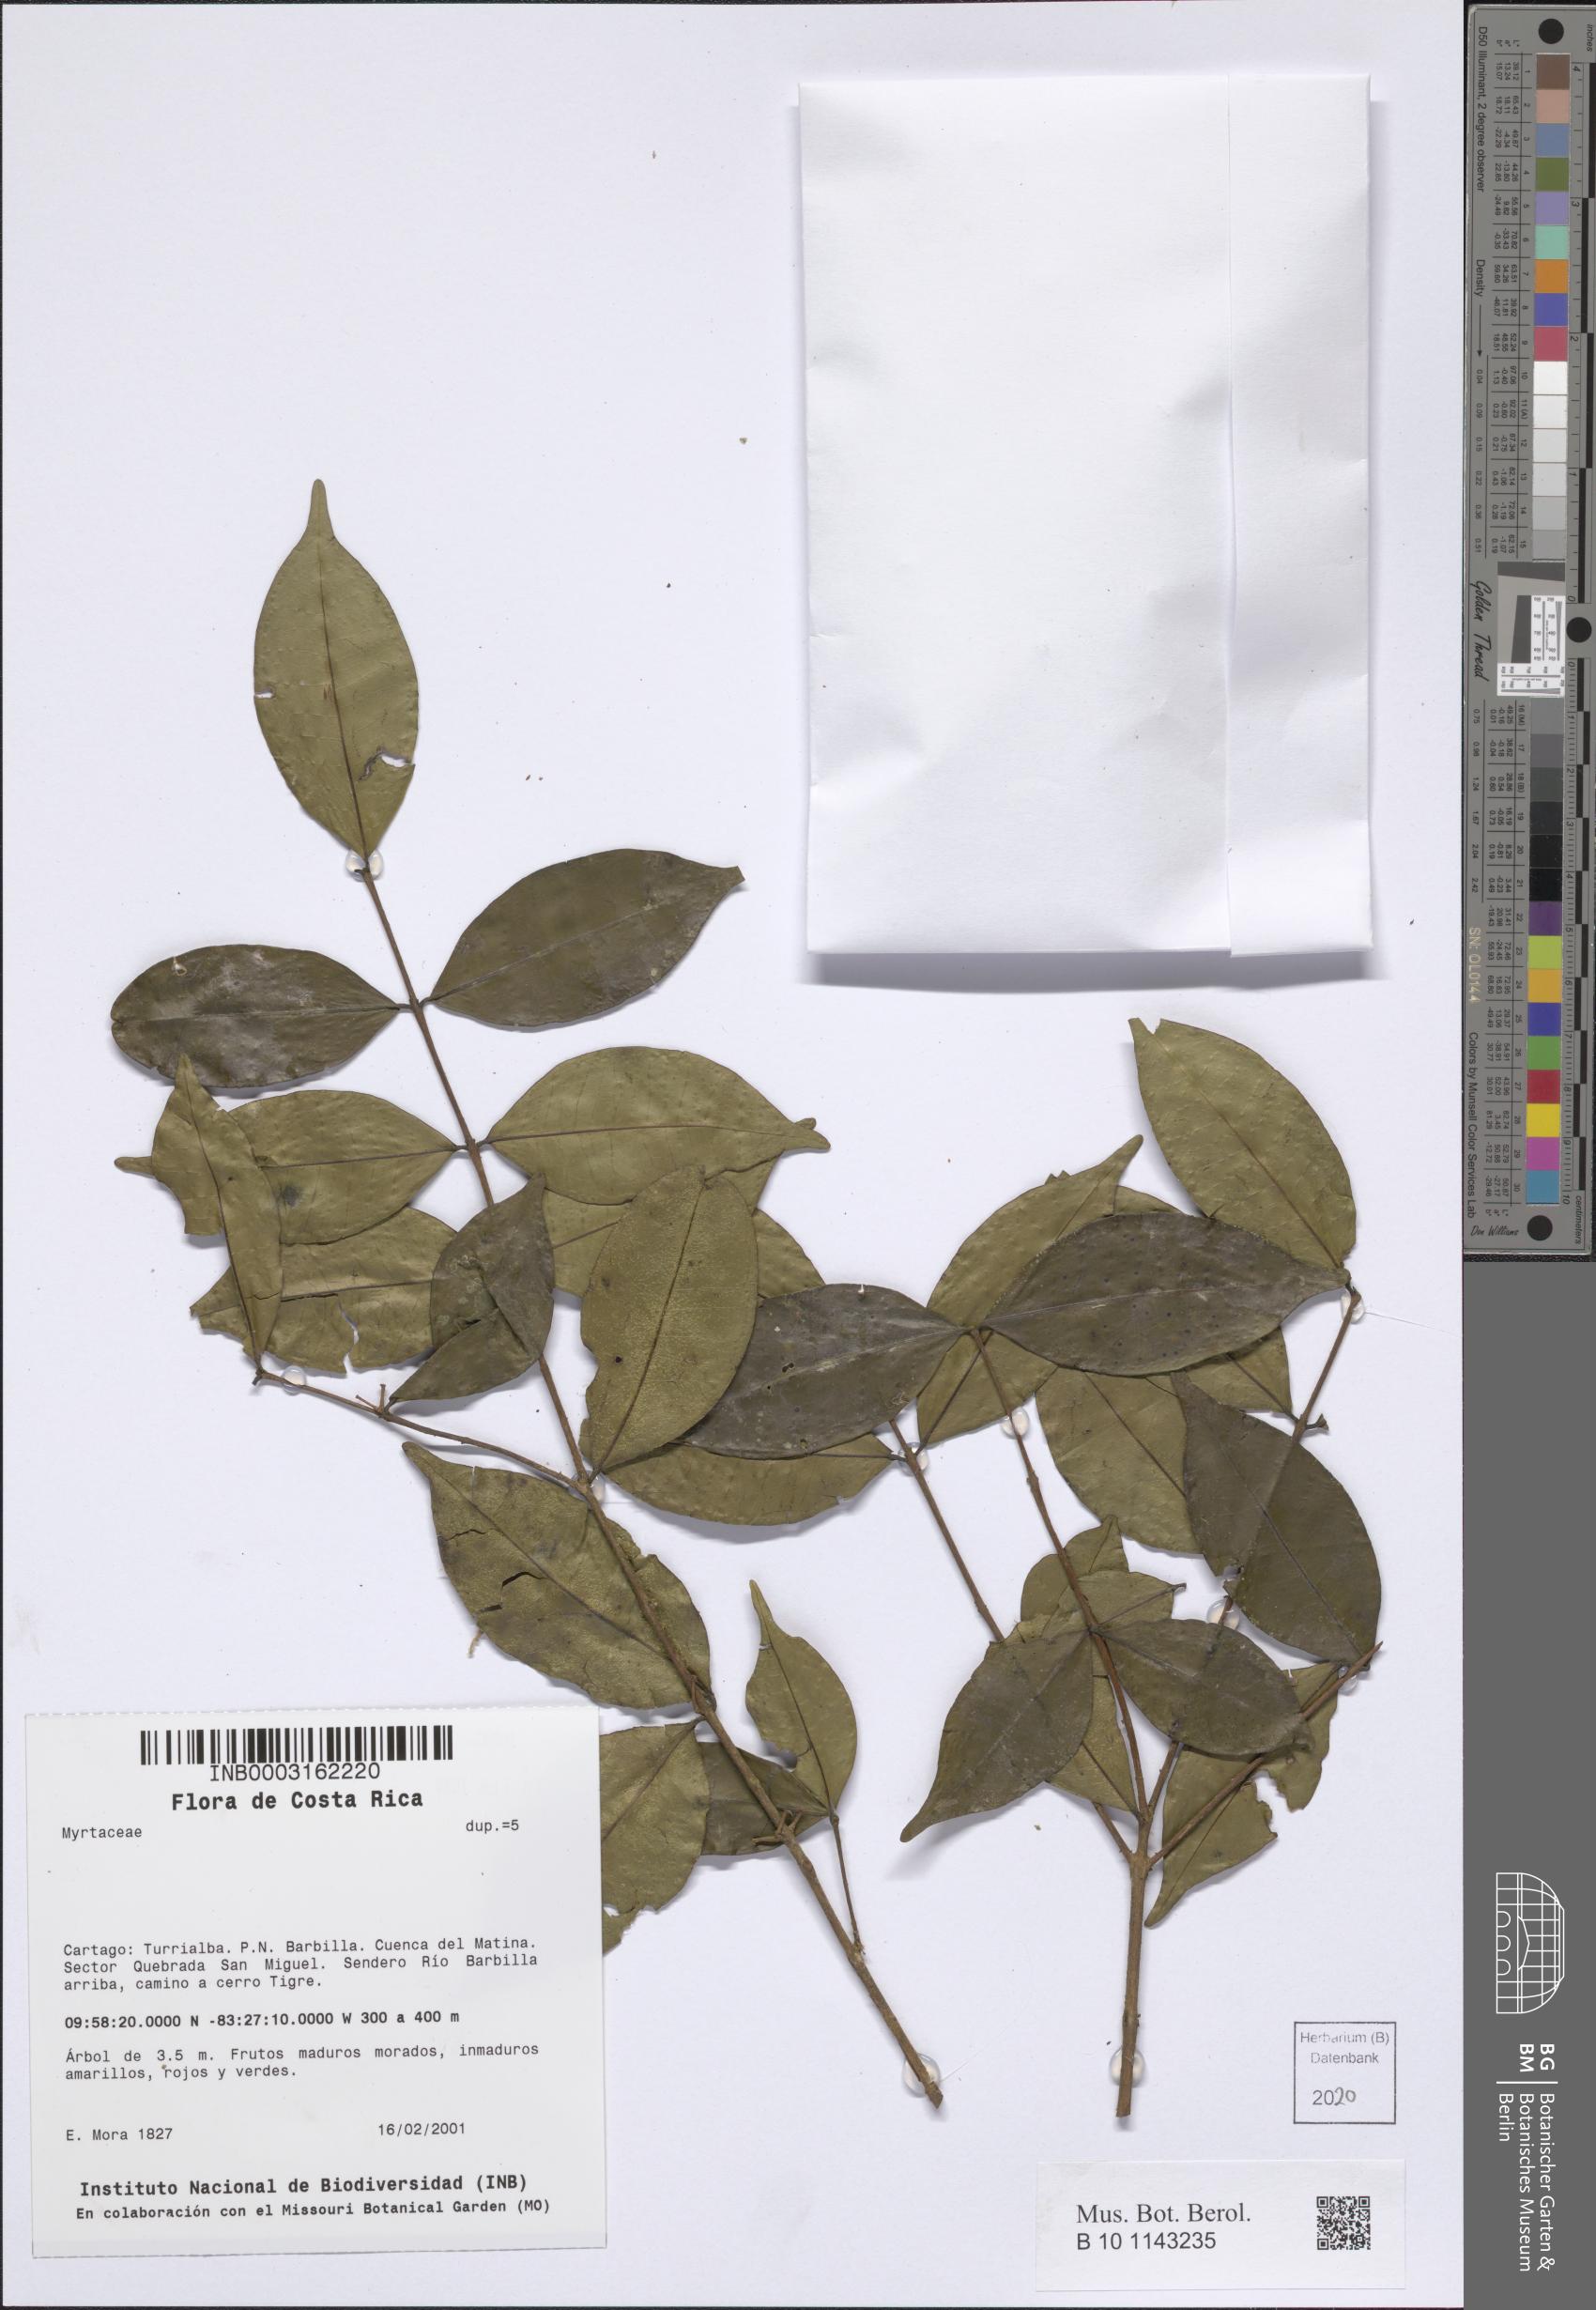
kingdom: Plantae
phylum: Tracheophyta
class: Magnoliopsida
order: Myrtales
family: Myrtaceae
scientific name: Myrtaceae
